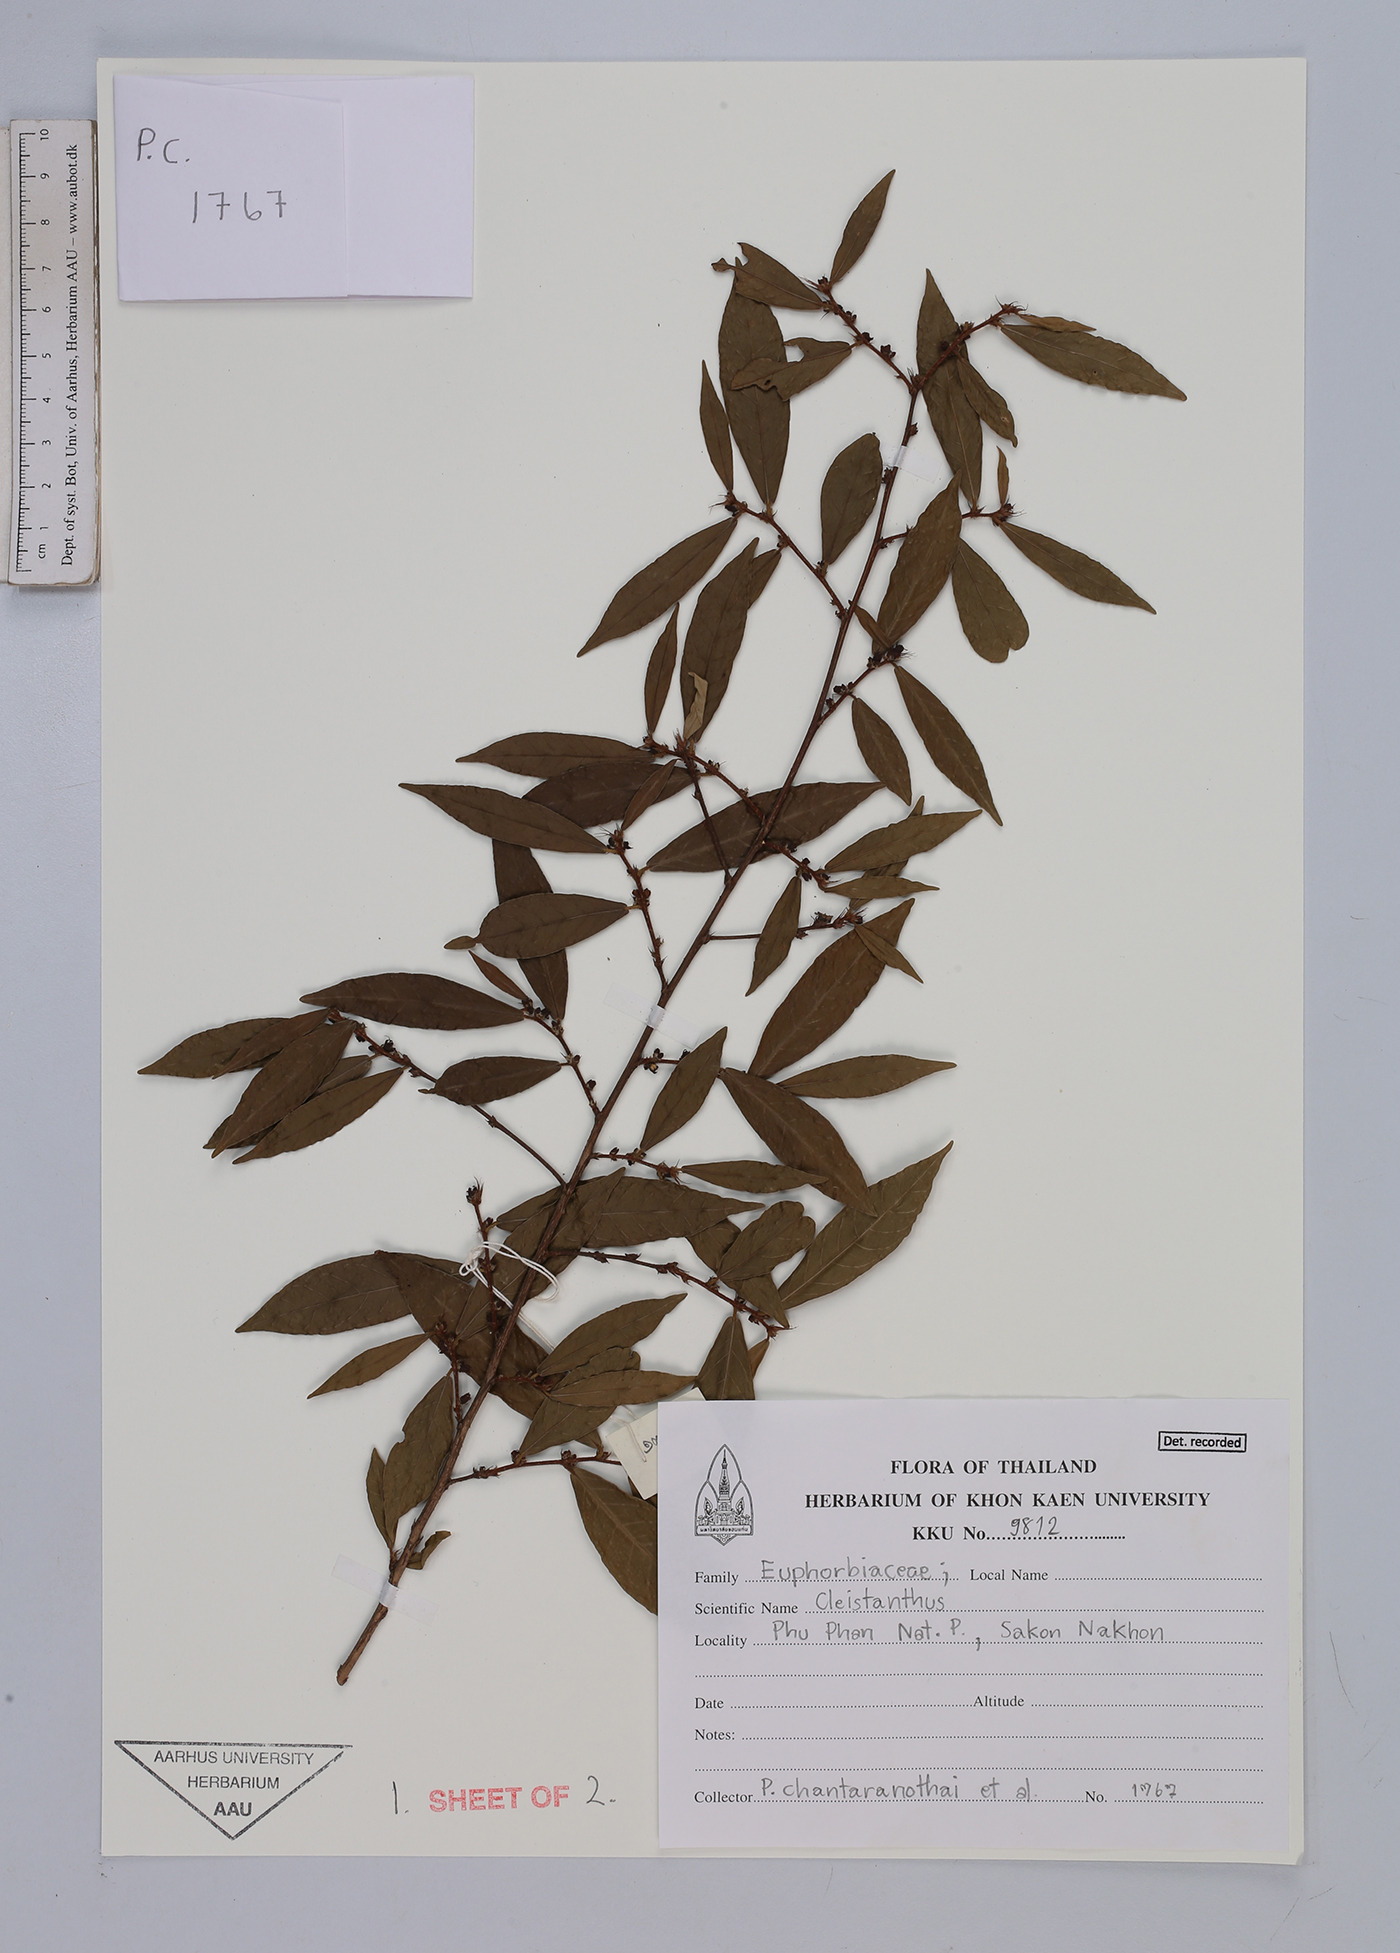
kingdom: Plantae
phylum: Tracheophyta
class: Magnoliopsida
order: Malpighiales
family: Euphorbiaceae
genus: Cleistanthus
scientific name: Cleistanthus
